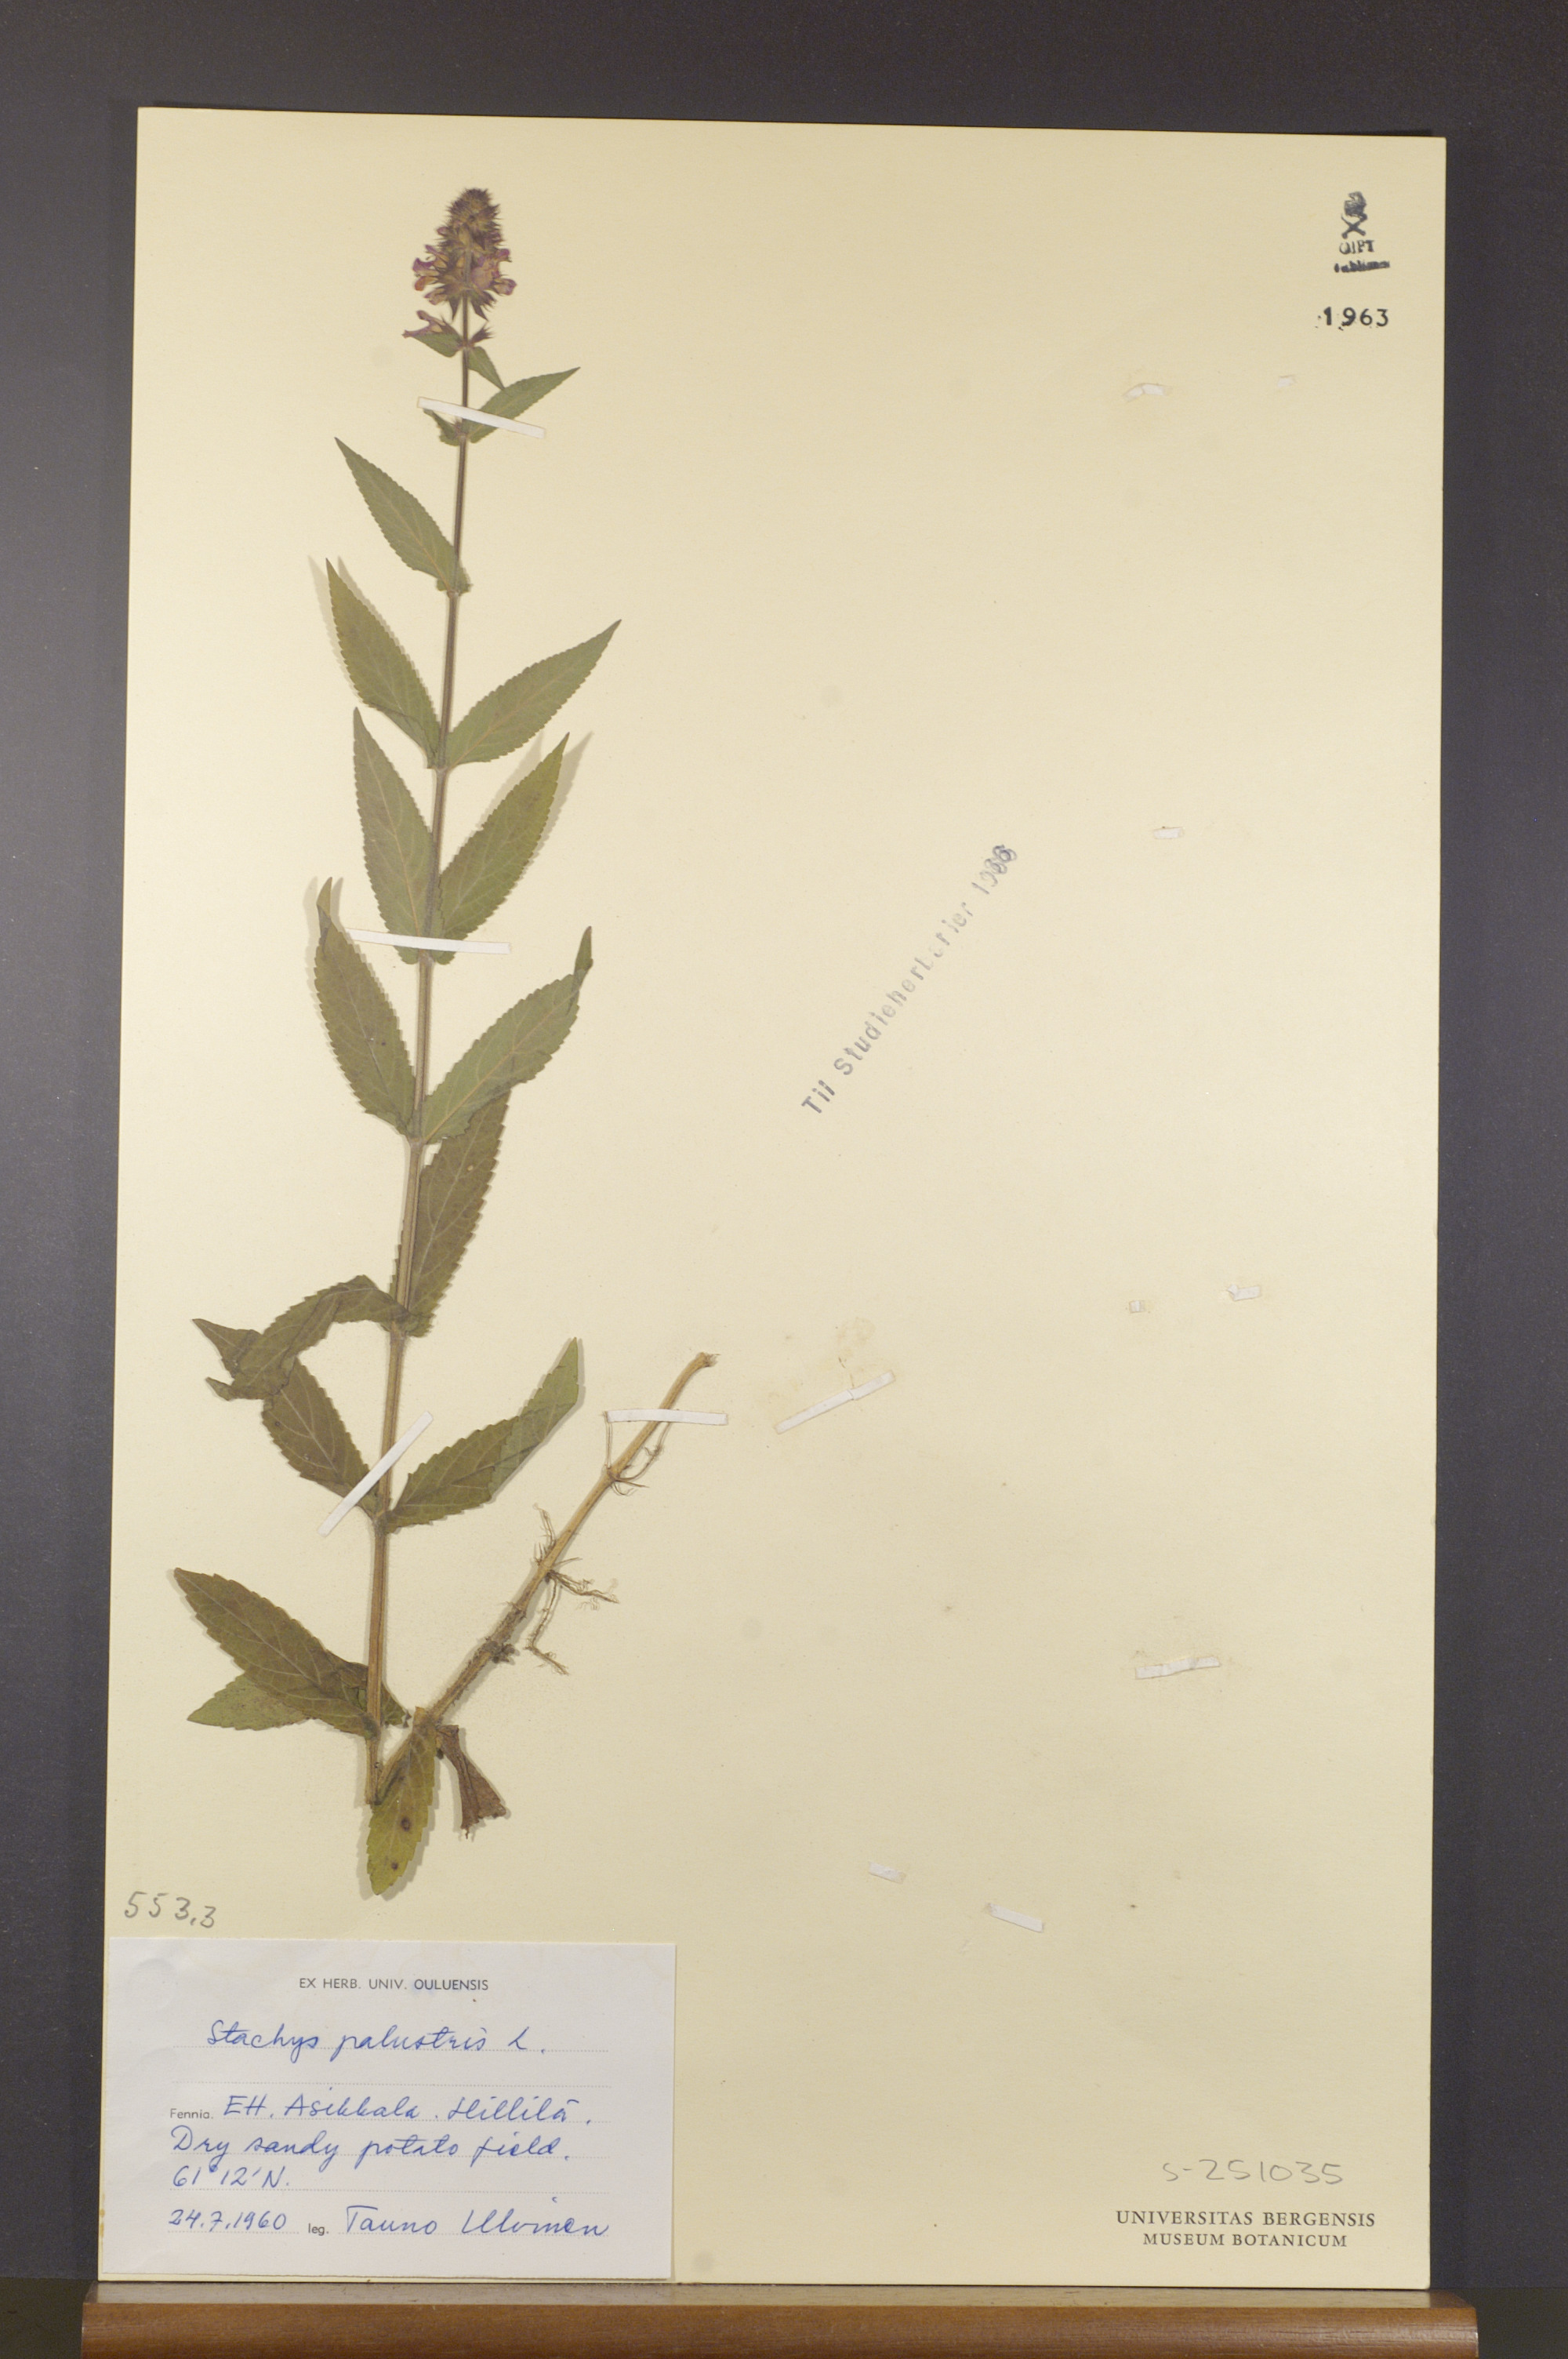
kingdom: Plantae
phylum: Tracheophyta
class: Magnoliopsida
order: Lamiales
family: Lamiaceae
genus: Stachys
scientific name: Stachys palustris
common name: Marsh woundwort
